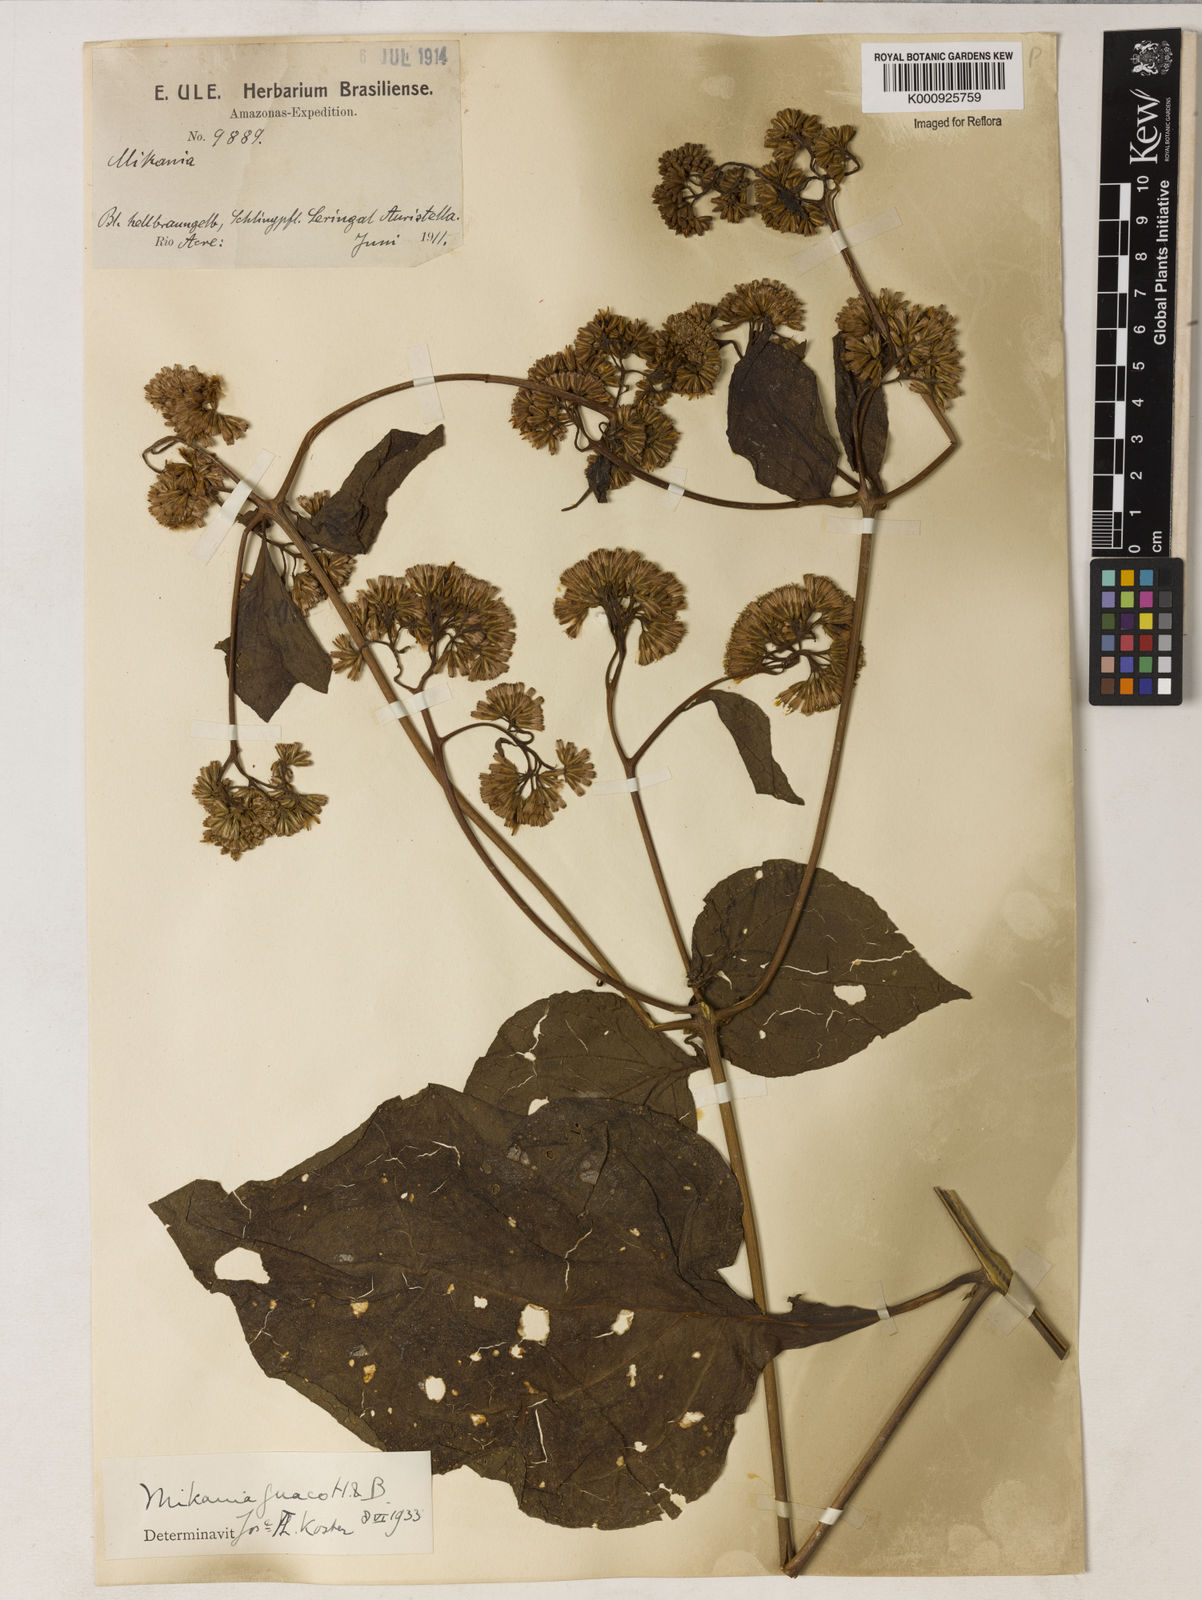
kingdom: Plantae
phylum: Tracheophyta
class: Magnoliopsida
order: Asterales
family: Asteraceae
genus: Mikania
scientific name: Mikania guaco
